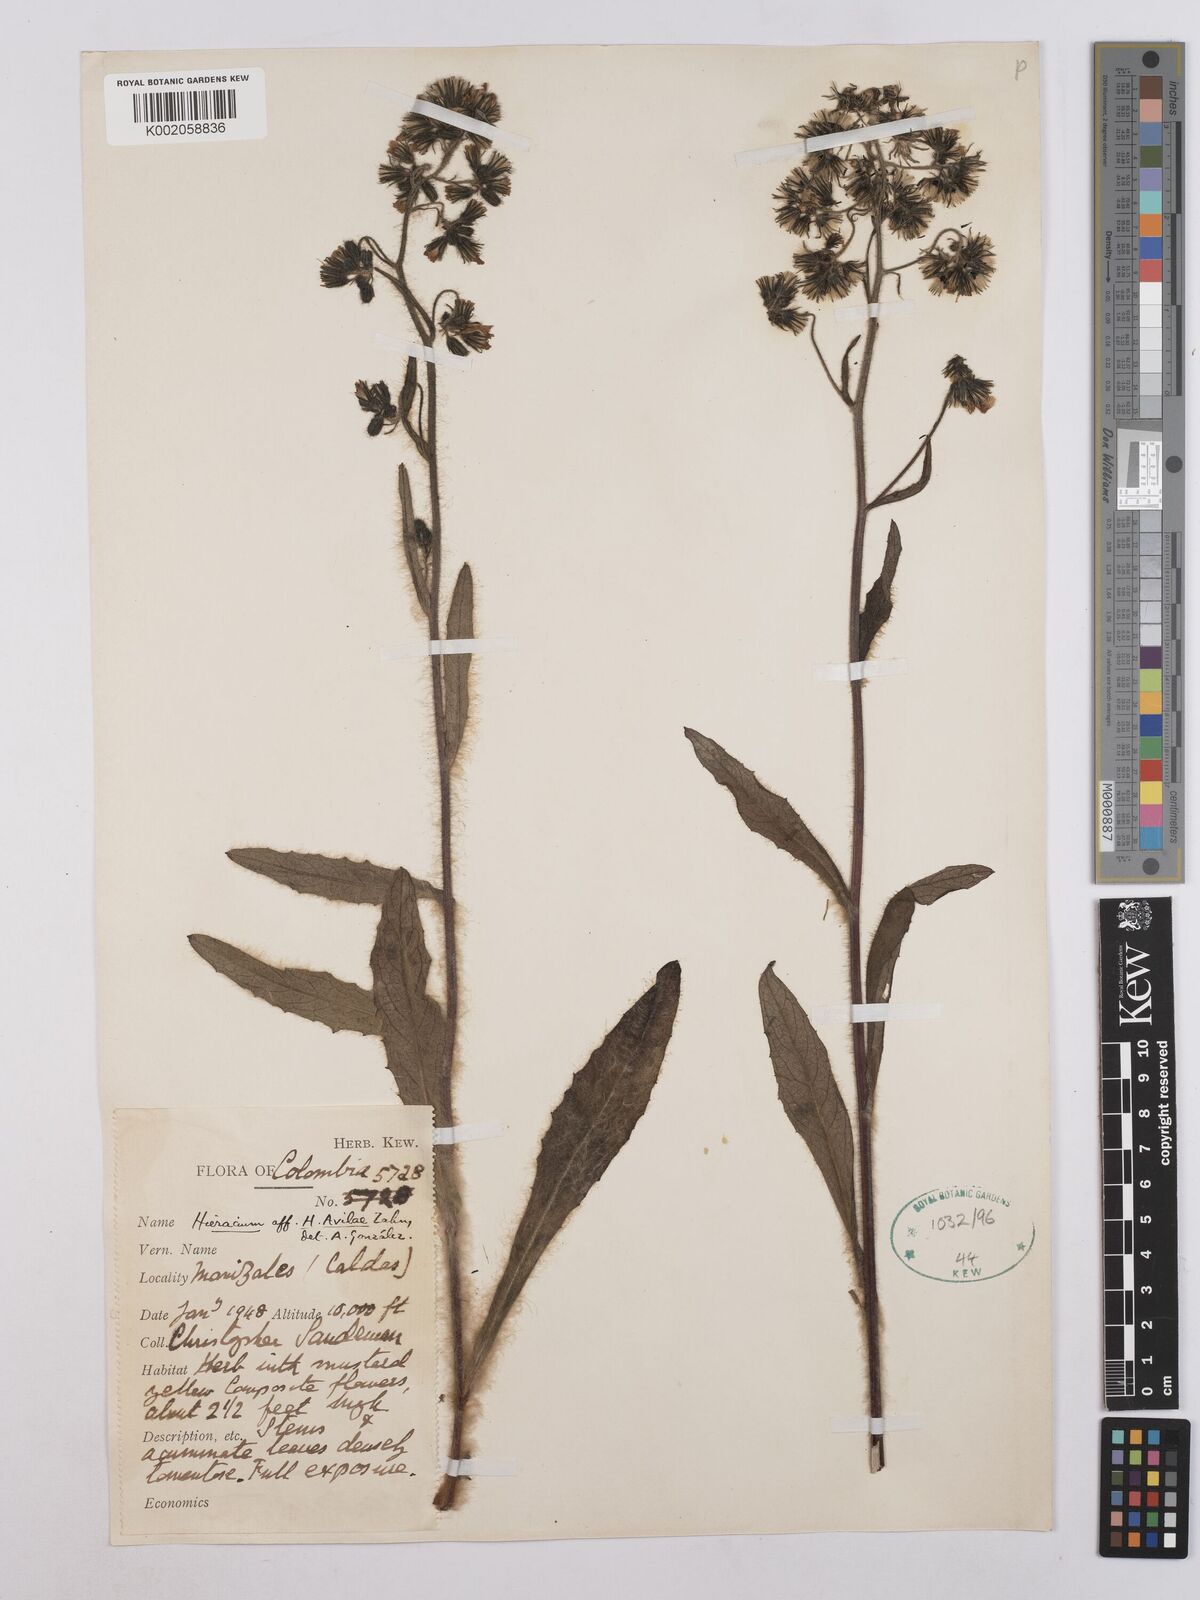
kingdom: Plantae
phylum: Tracheophyta
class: Magnoliopsida
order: Asterales
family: Asteraceae
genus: Hieracium
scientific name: Hieracium avilae
